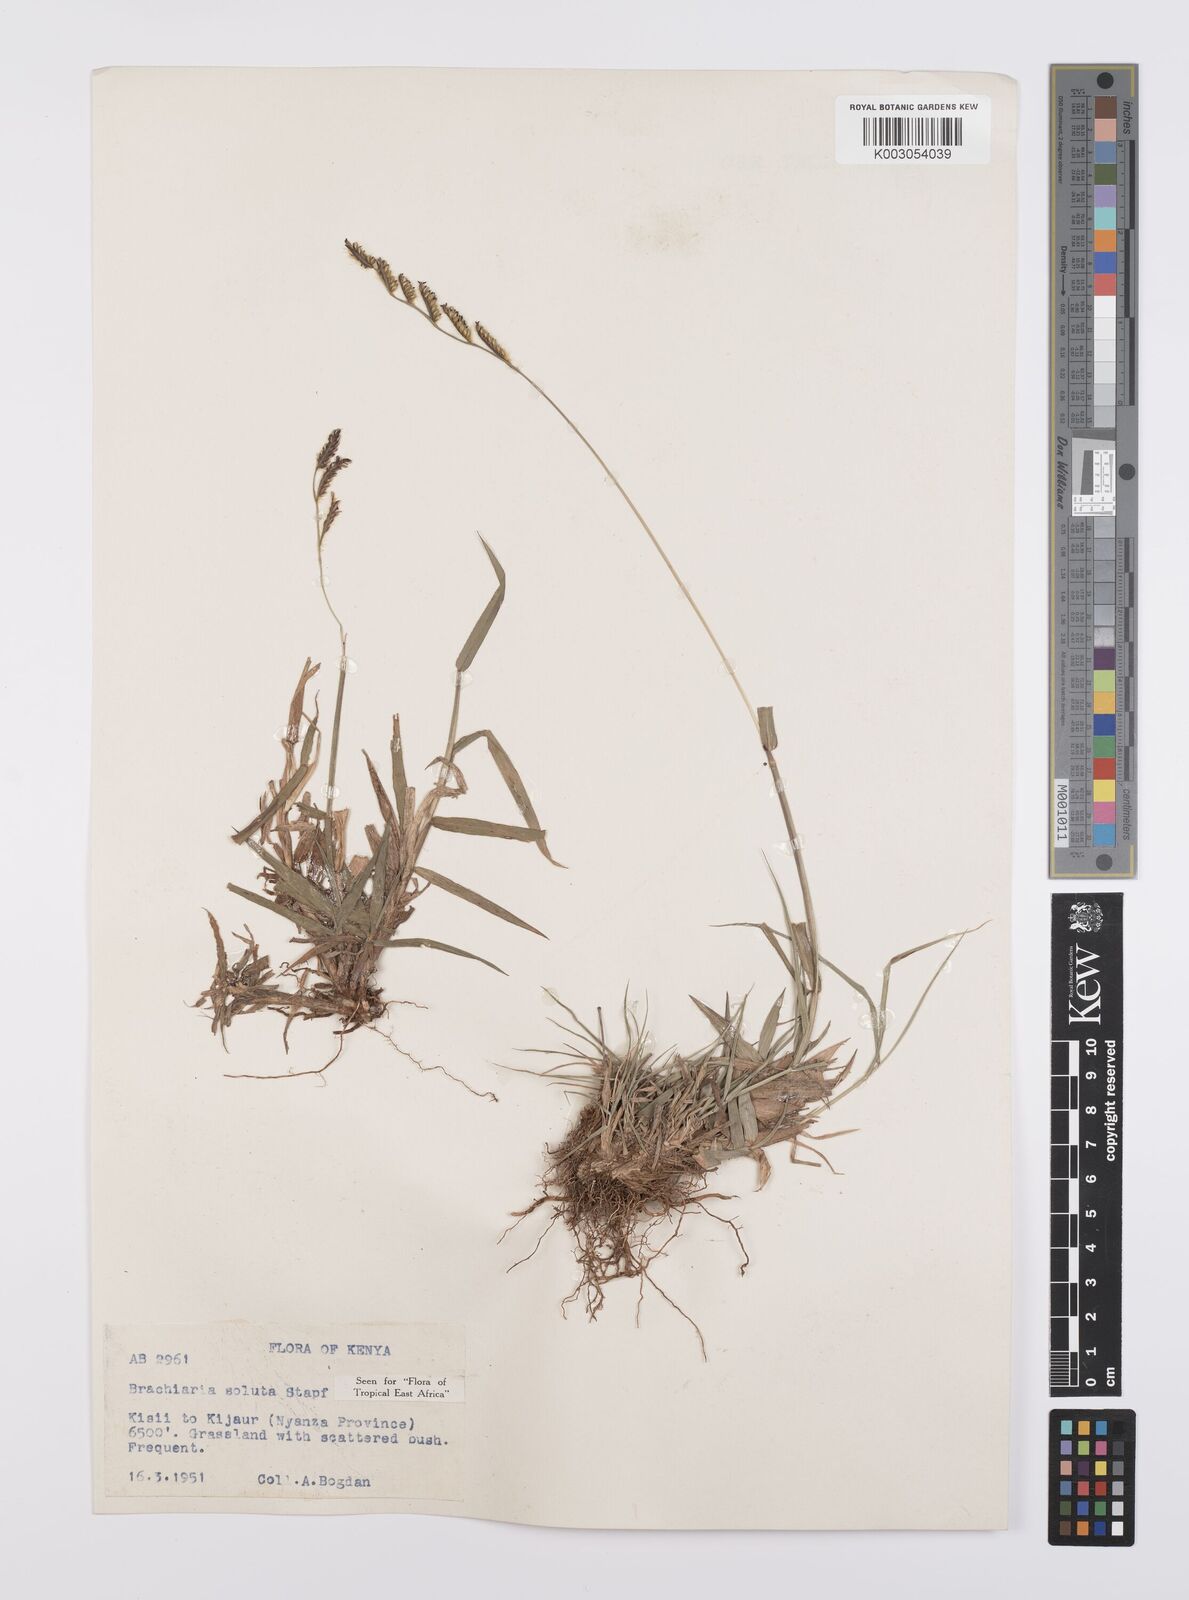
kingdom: Plantae
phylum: Tracheophyta
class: Liliopsida
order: Poales
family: Poaceae
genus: Urochloa
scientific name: Urochloa jubata
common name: Buffalograss
